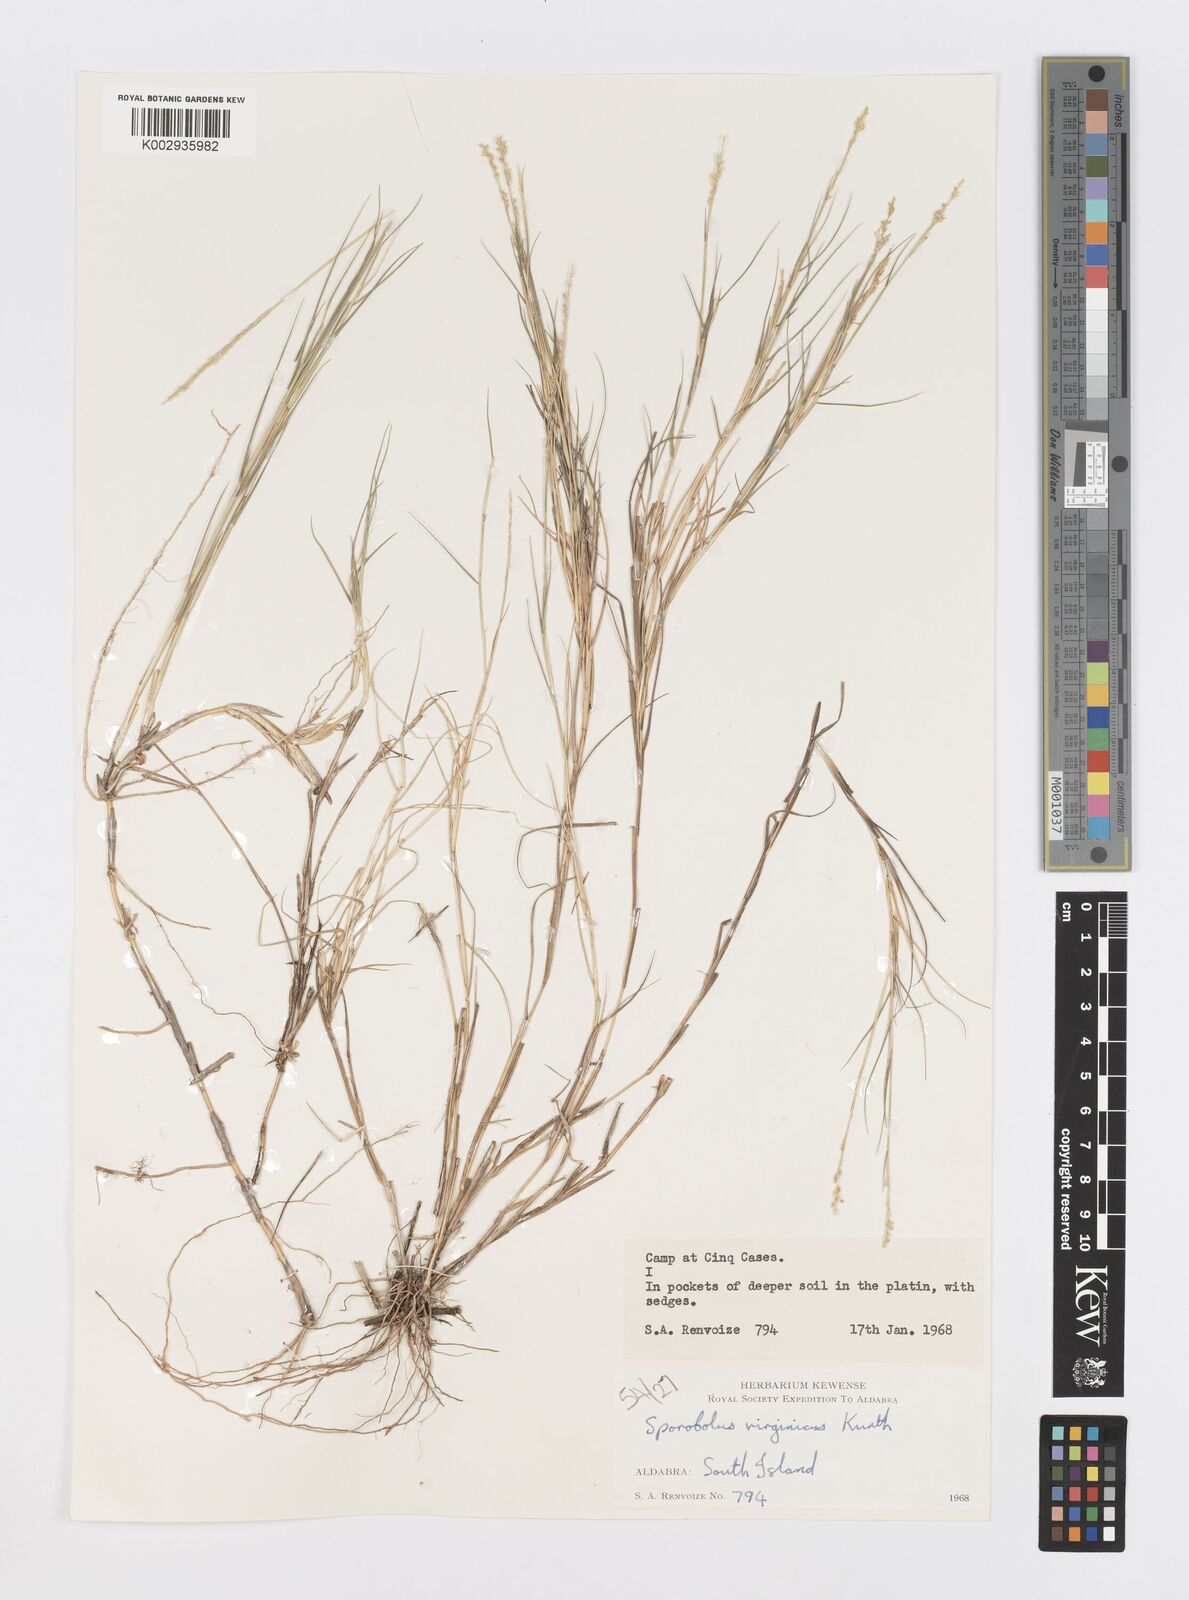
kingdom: Plantae
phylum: Tracheophyta
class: Liliopsida
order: Poales
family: Poaceae
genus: Sporobolus
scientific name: Sporobolus virginicus
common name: Beach dropseed
